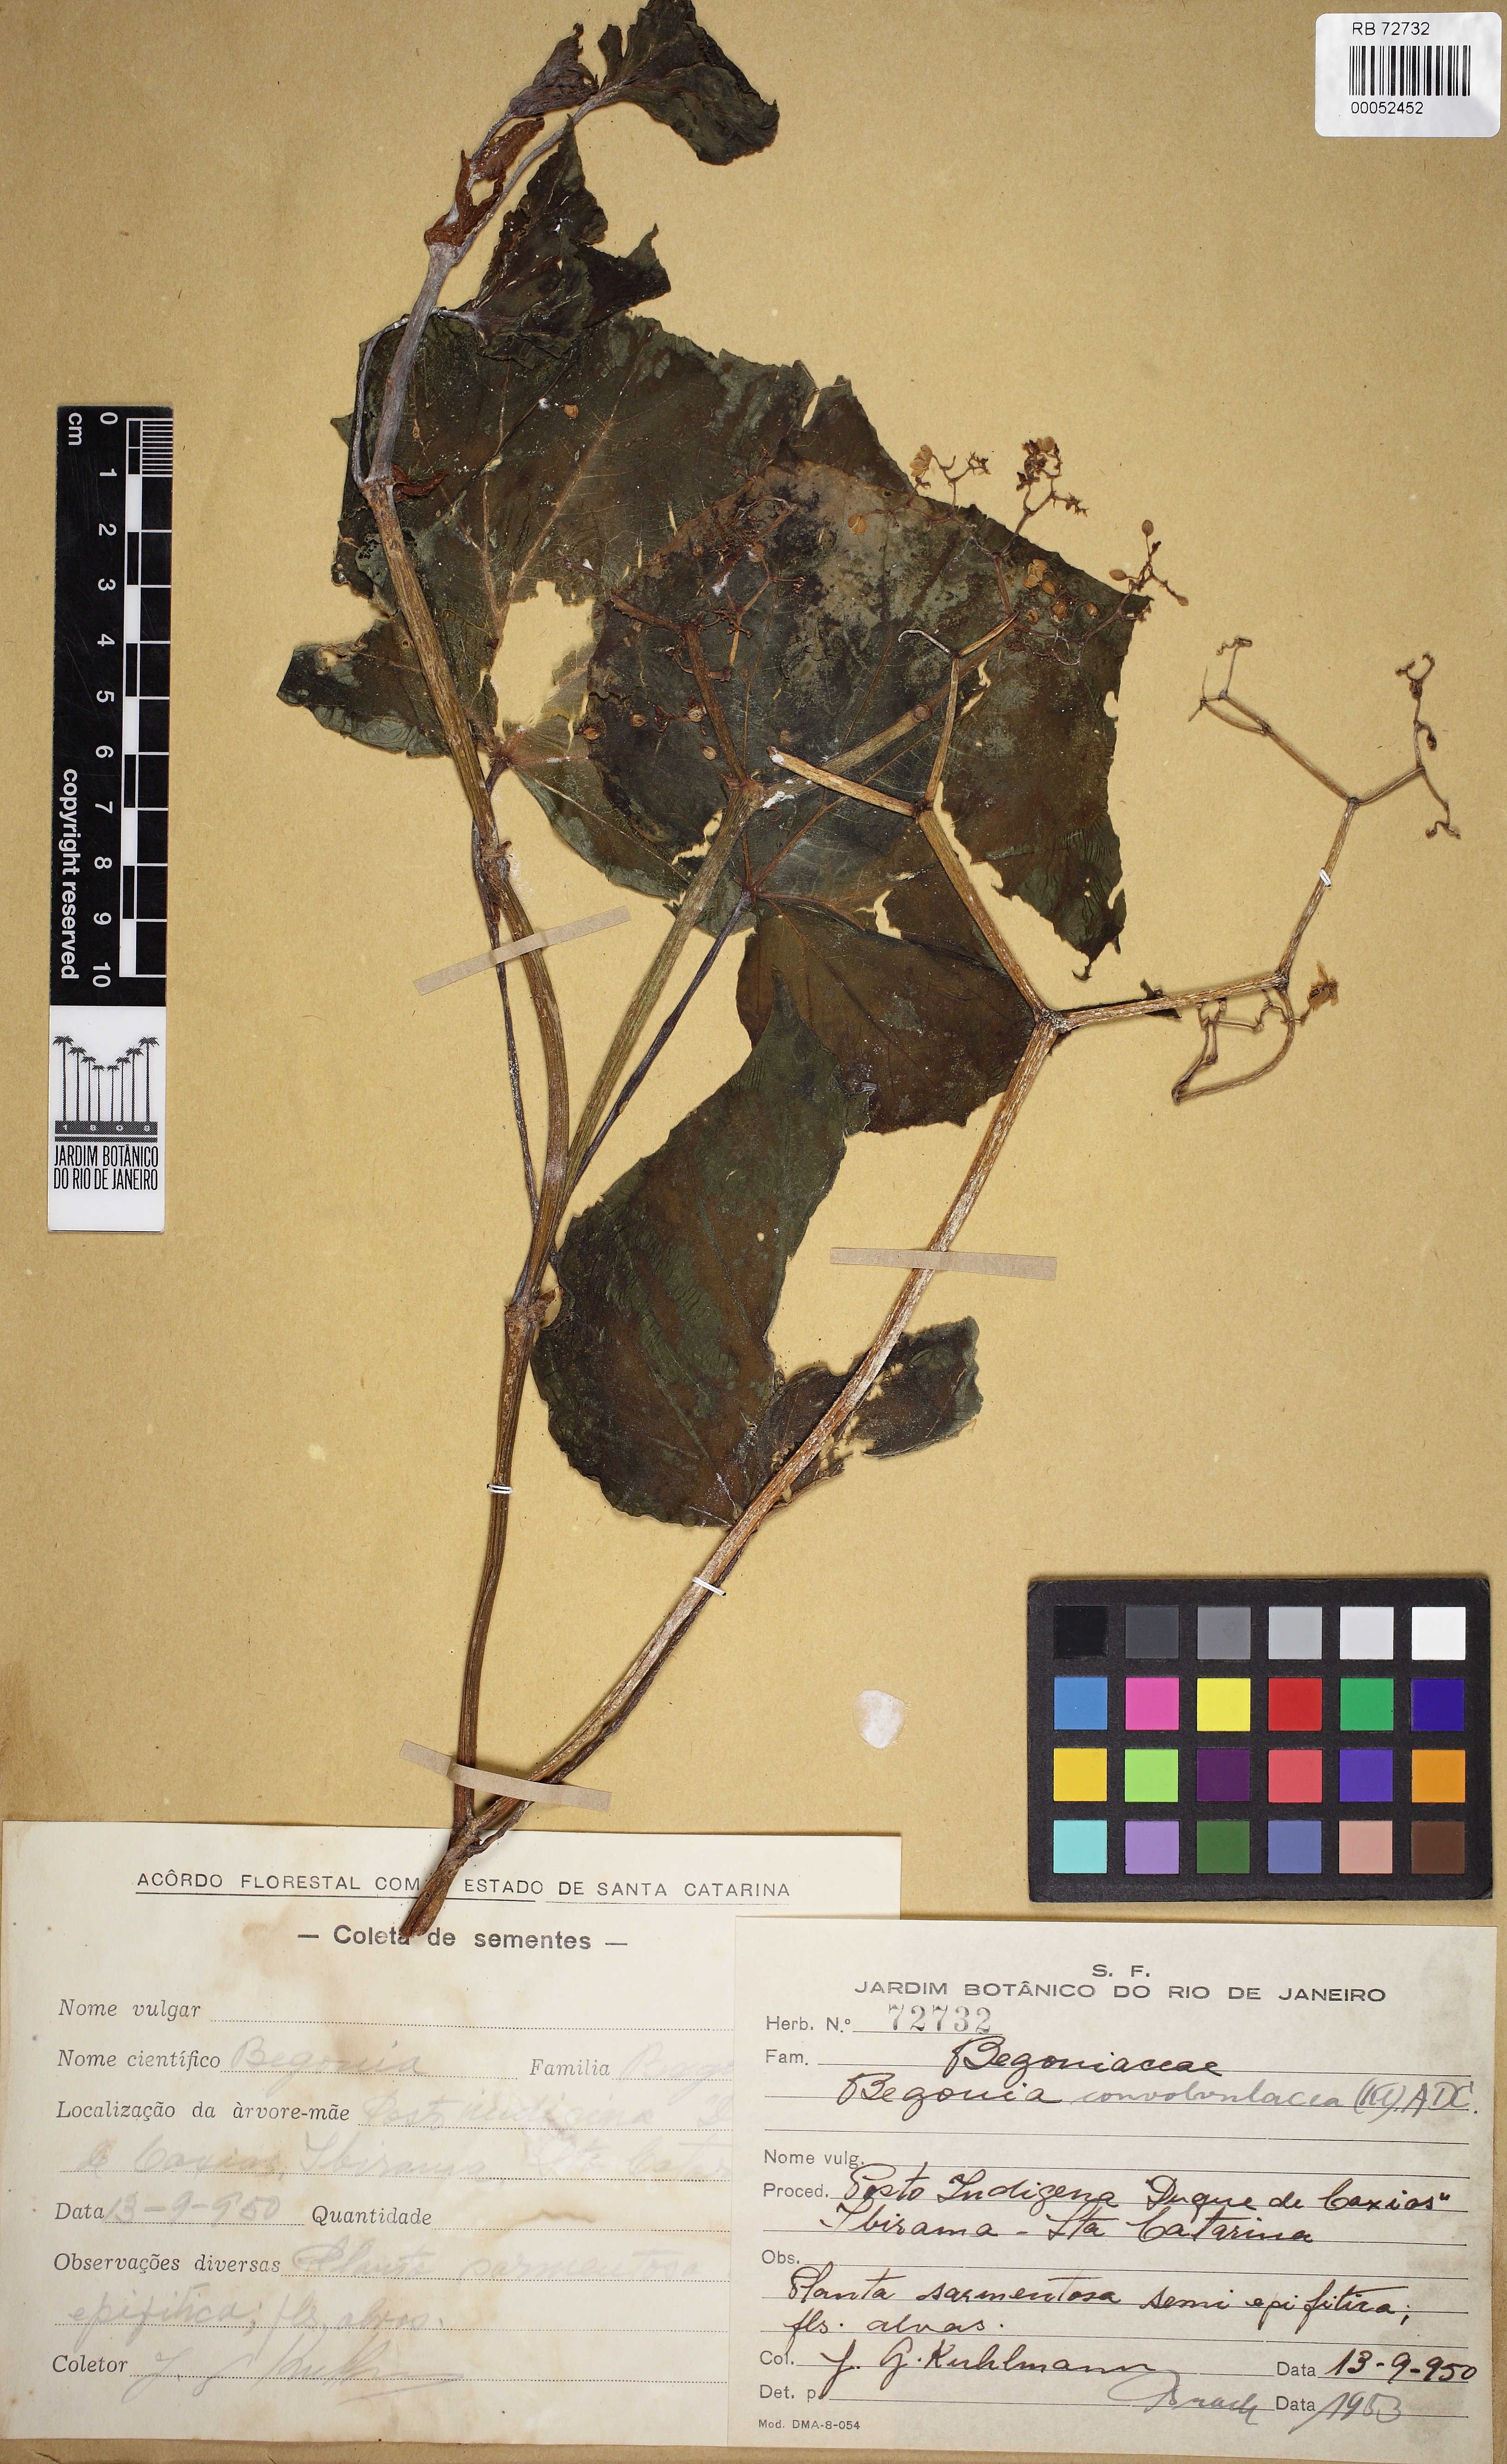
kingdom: Plantae
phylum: Tracheophyta
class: Magnoliopsida
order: Cucurbitales
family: Begoniaceae
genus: Begonia
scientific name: Begonia convolvulacea
